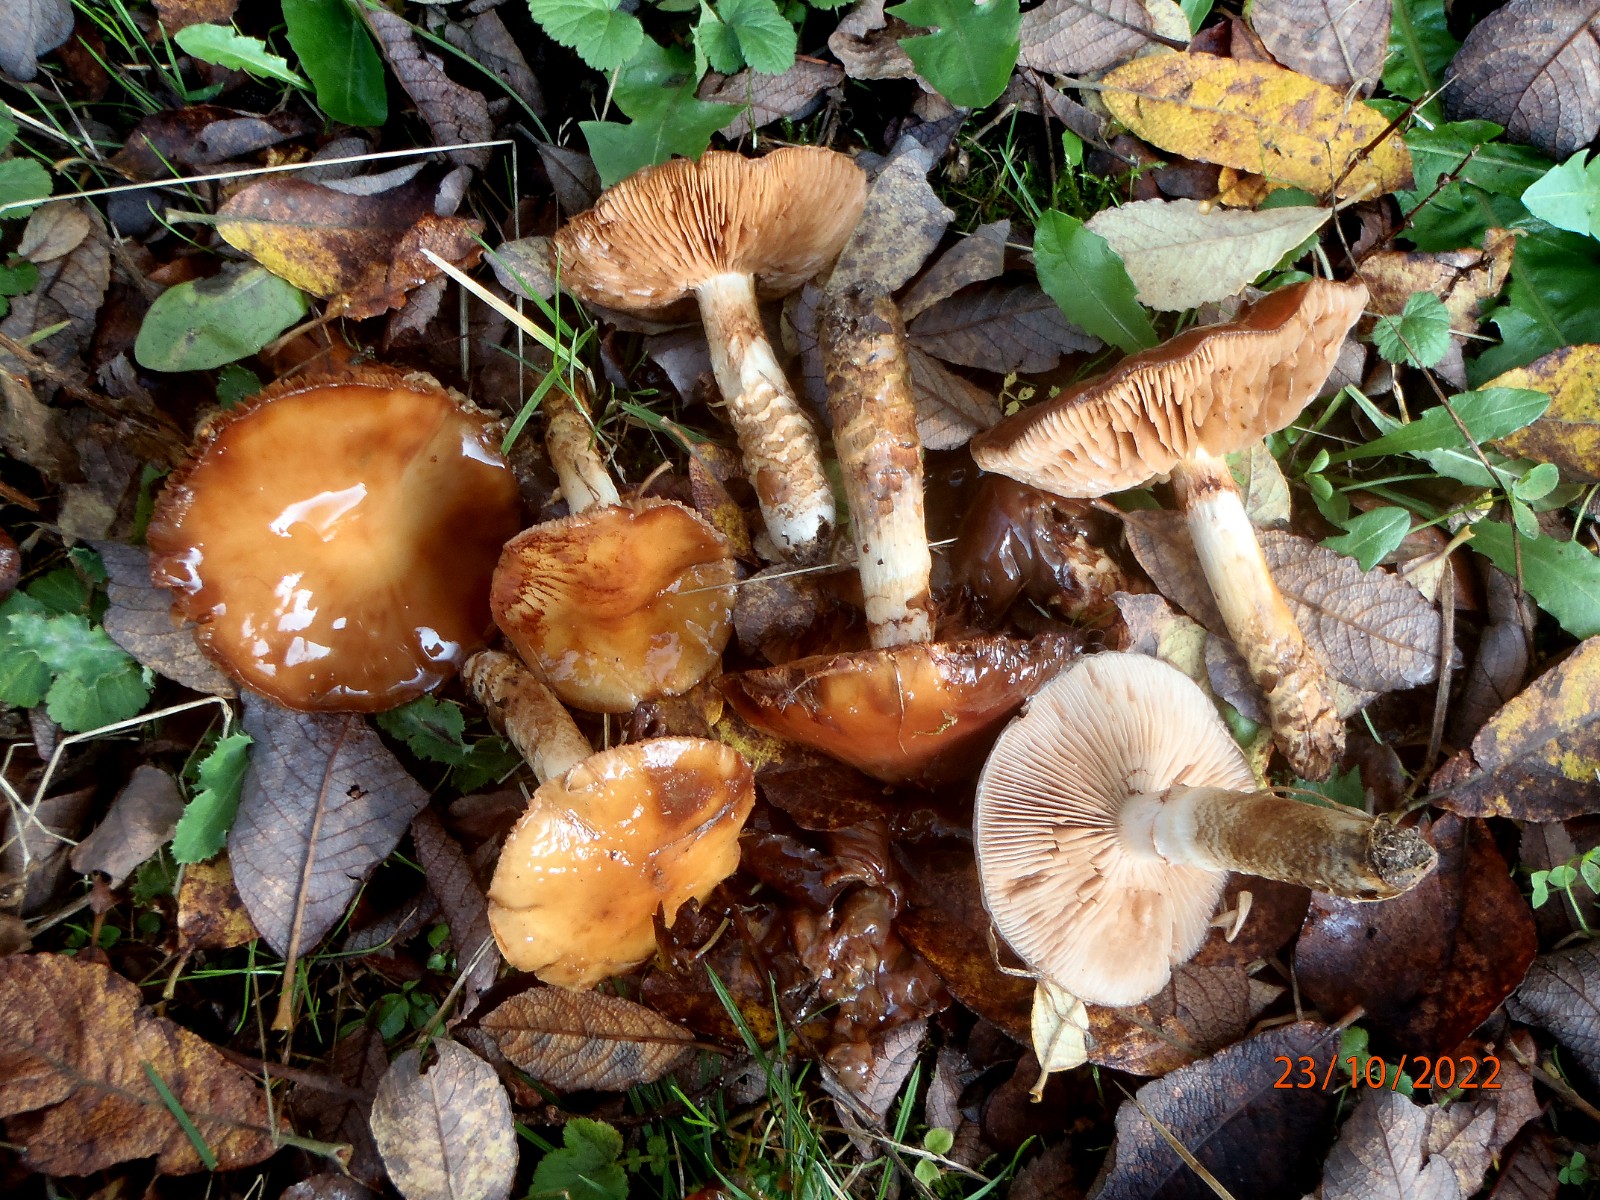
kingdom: Fungi
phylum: Basidiomycota
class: Agaricomycetes
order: Agaricales
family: Cortinariaceae
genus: Cortinarius
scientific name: Cortinarius trivialis
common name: brunslimet slørhat
